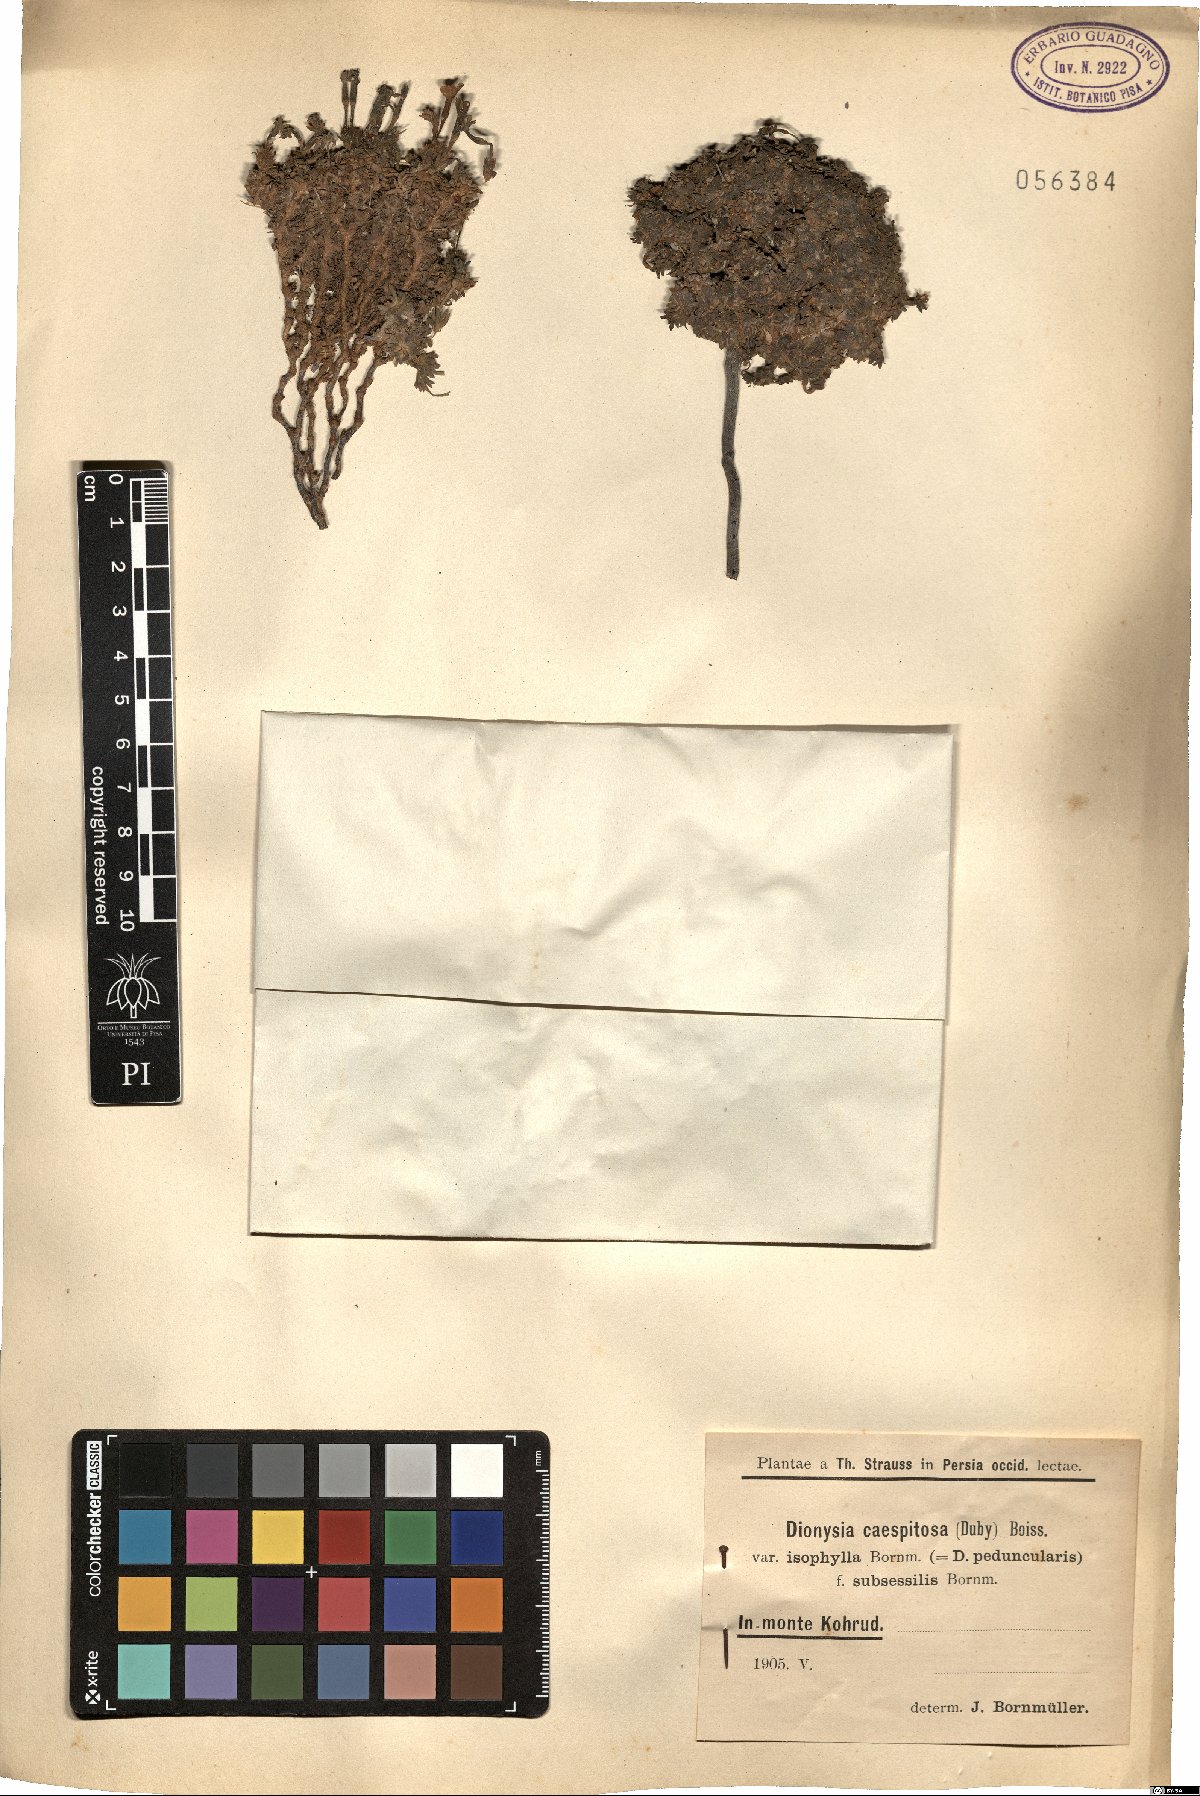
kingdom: Plantae
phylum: Tracheophyta
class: Magnoliopsida
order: Ericales
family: Primulaceae
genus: Dionysia
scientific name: Dionysia caespitosa
